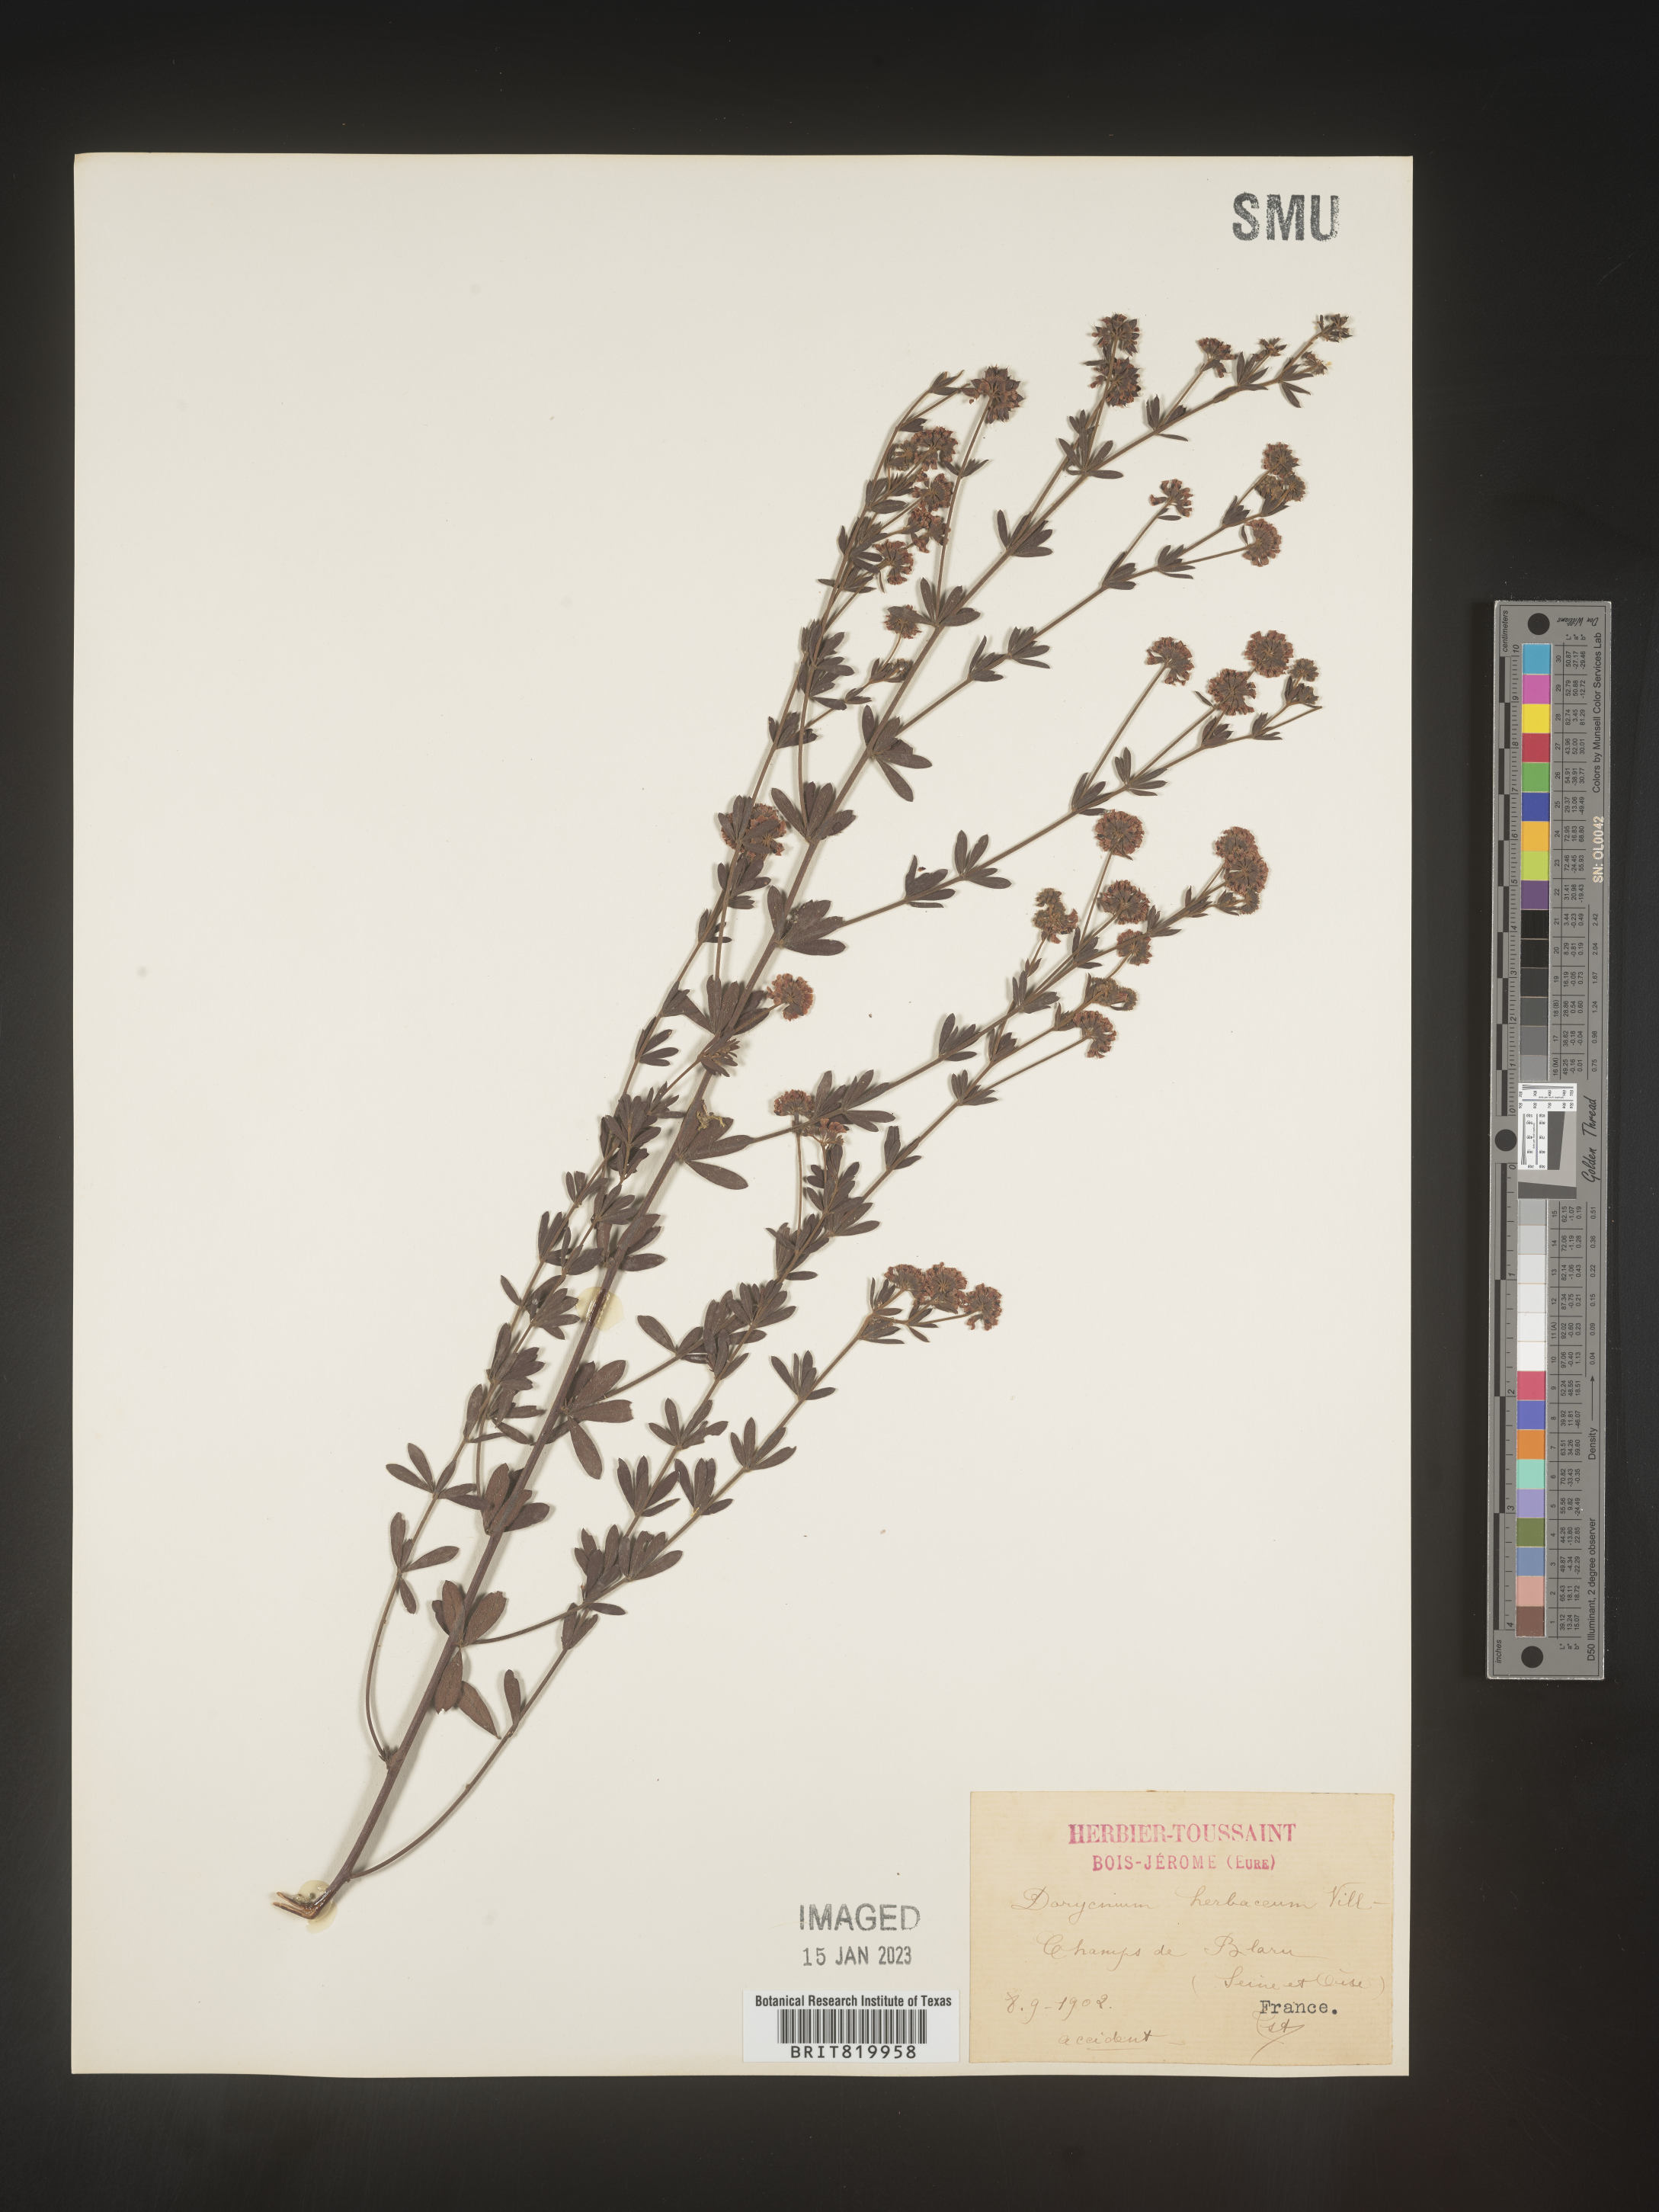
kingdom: Plantae
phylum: Tracheophyta
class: Magnoliopsida
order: Fabales
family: Fabaceae
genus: Lotus
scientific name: Lotus
